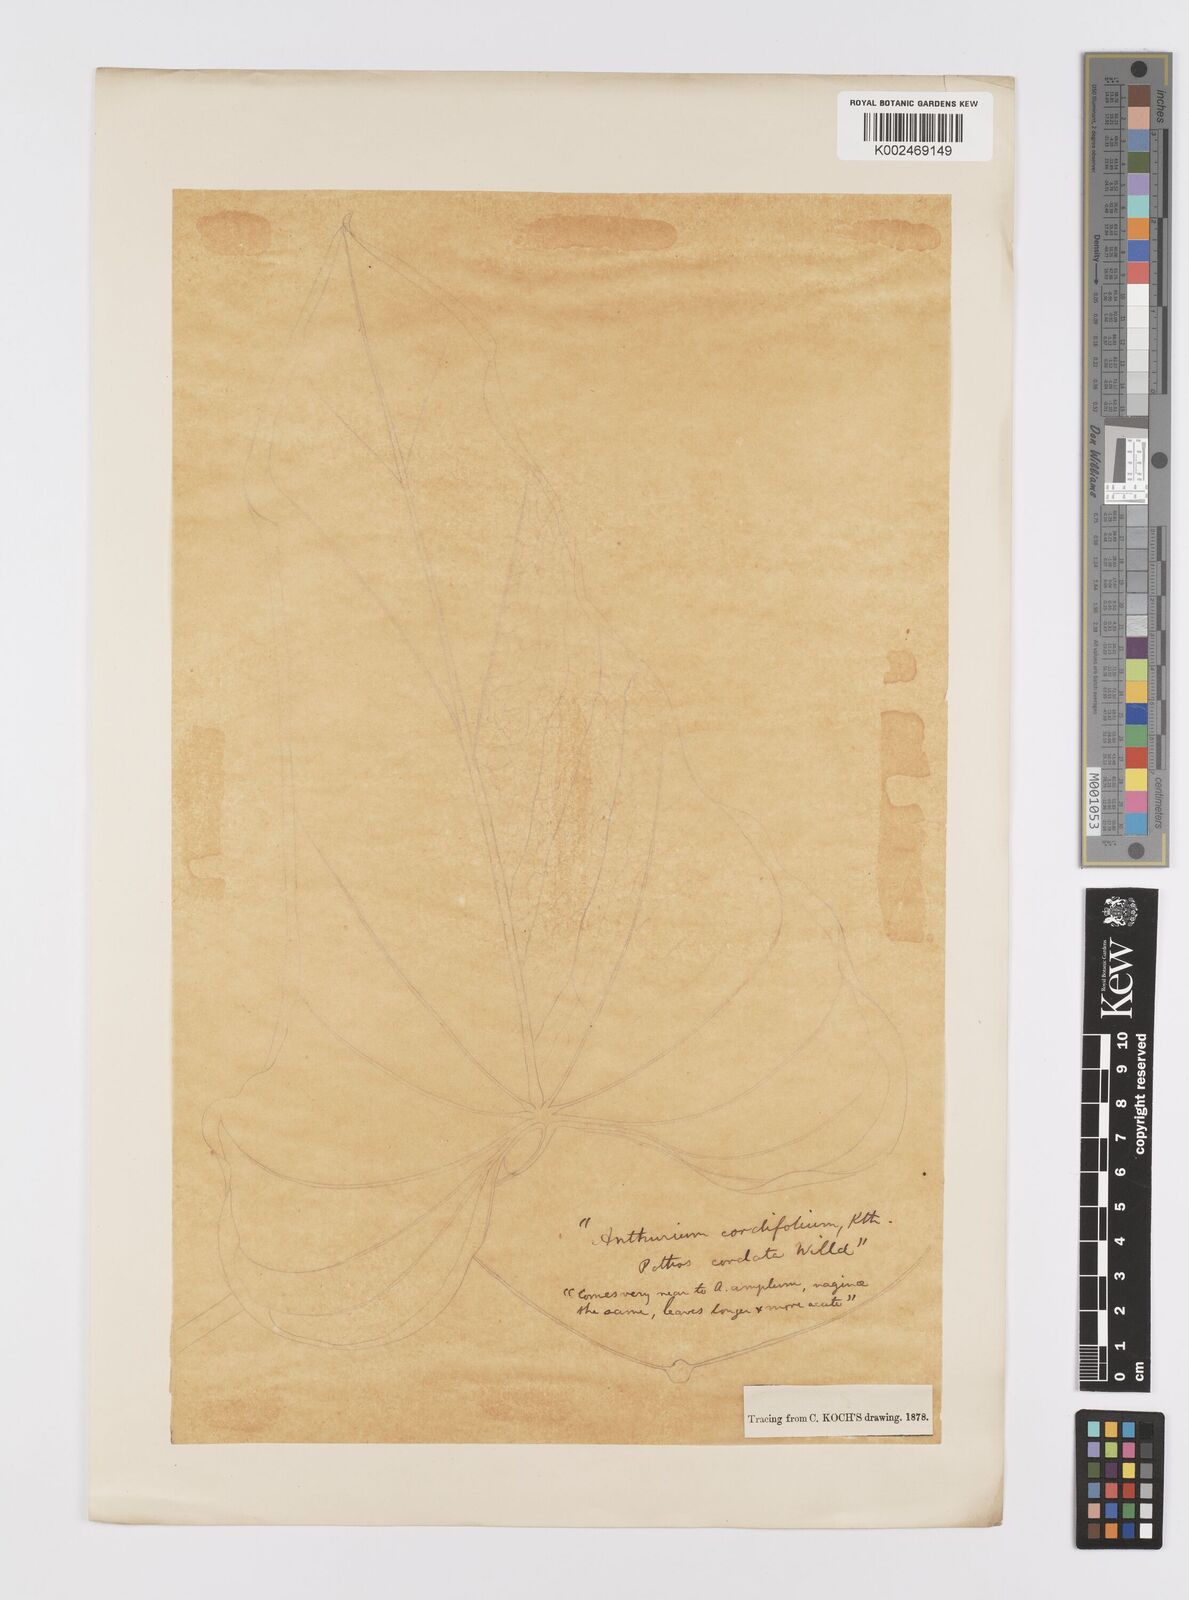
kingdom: Plantae
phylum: Tracheophyta
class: Liliopsida
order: Alismatales
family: Araceae
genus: Anthurium
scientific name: Anthurium grandifolium
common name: Monkey tail
